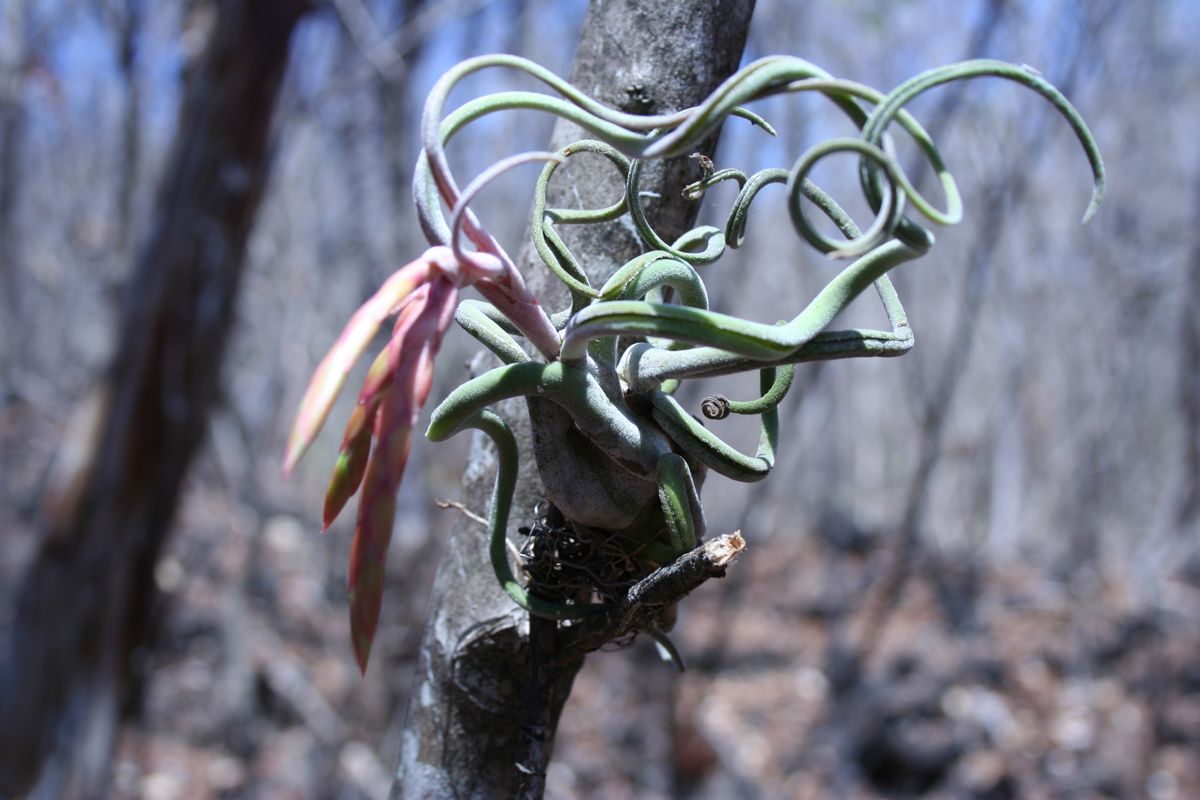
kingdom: Plantae
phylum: Tracheophyta
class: Liliopsida
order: Poales
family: Bromeliaceae
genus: Tillandsia
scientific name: Tillandsia caput-medusae
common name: Octopus plant
